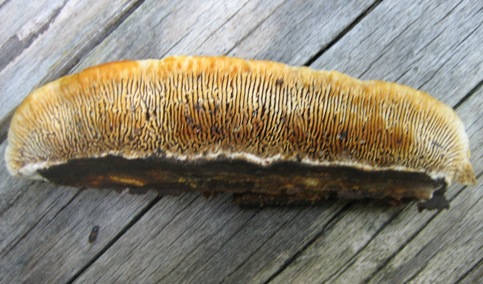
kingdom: Fungi
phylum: Basidiomycota
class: Agaricomycetes
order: Gloeophyllales
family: Gloeophyllaceae
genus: Gloeophyllum
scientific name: Gloeophyllum odoratum
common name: duftende korkhat
